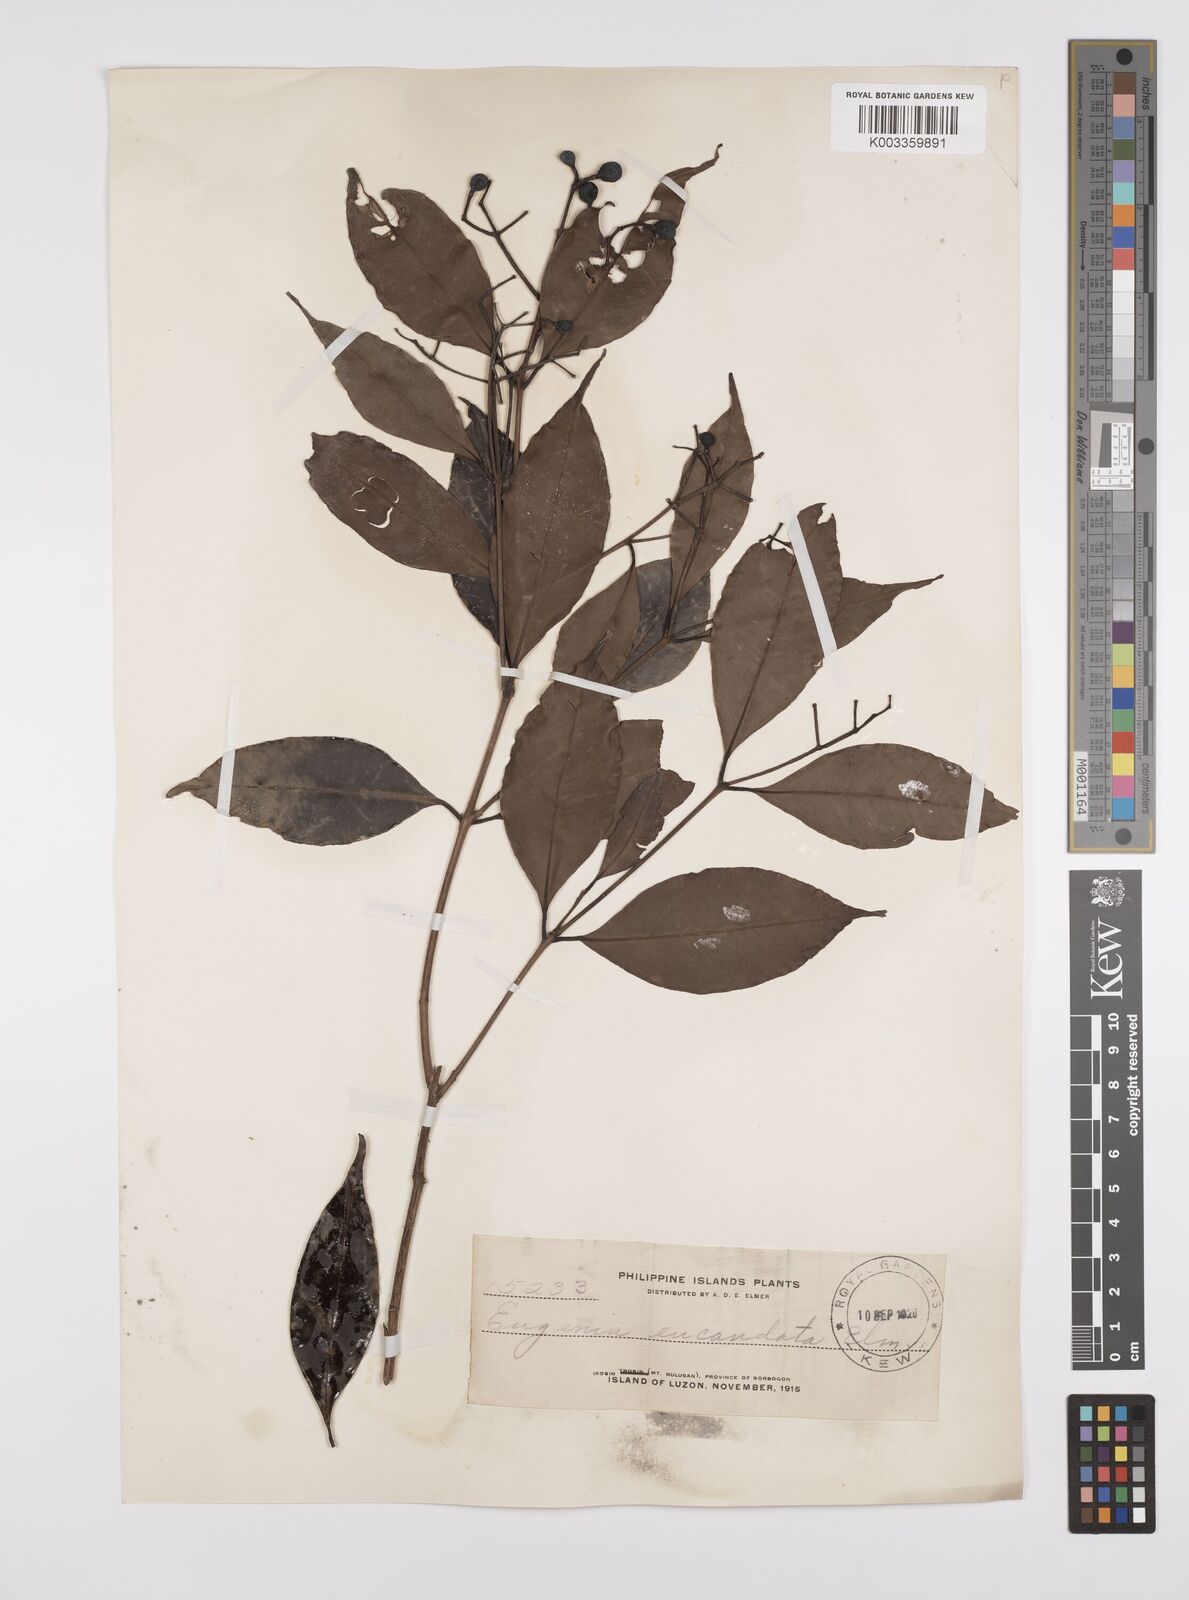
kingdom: Plantae
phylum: Tracheophyta
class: Magnoliopsida
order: Myrtales
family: Myrtaceae
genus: Syzygium
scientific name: Syzygium acuminatissimum
